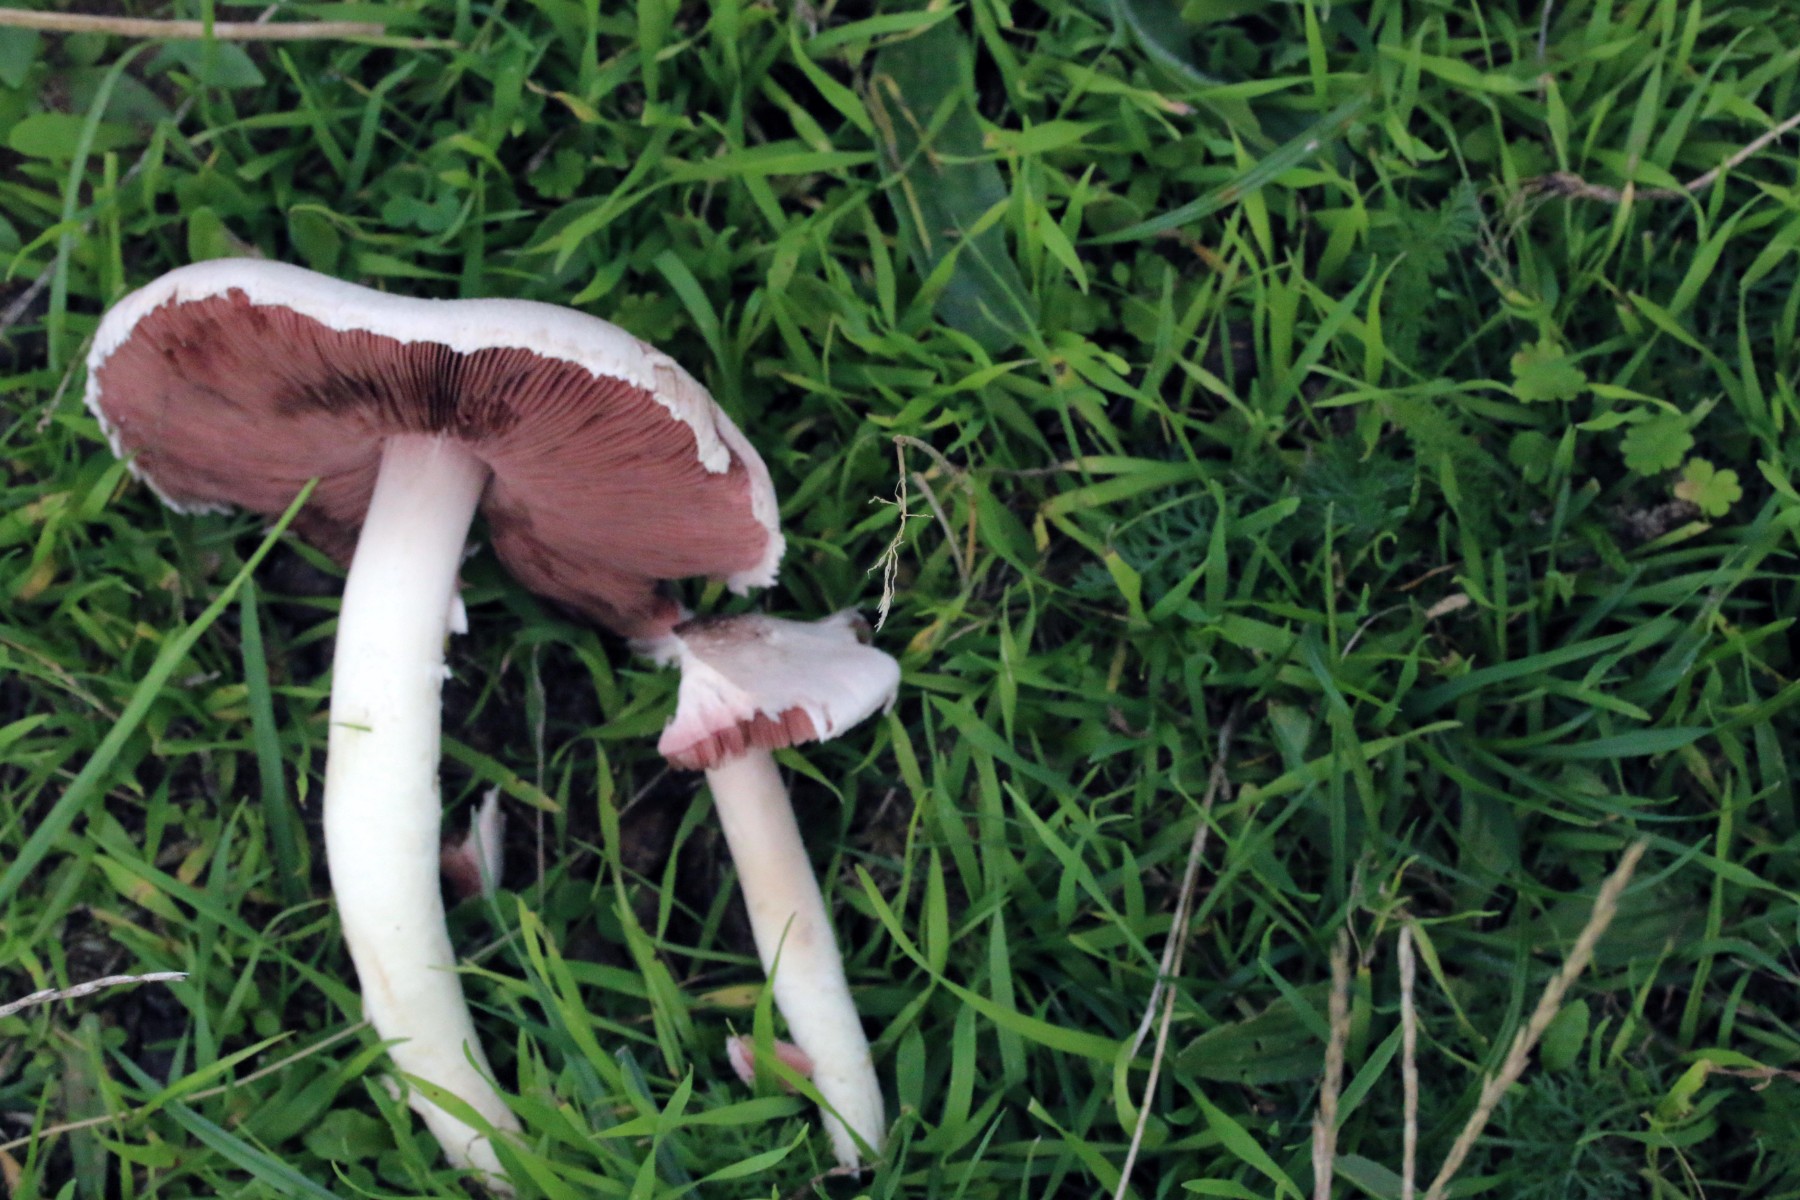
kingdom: Fungi
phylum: Basidiomycota
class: Agaricomycetes
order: Agaricales
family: Agaricaceae
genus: Agaricus
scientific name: Agaricus campestris
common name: mark-champignon
